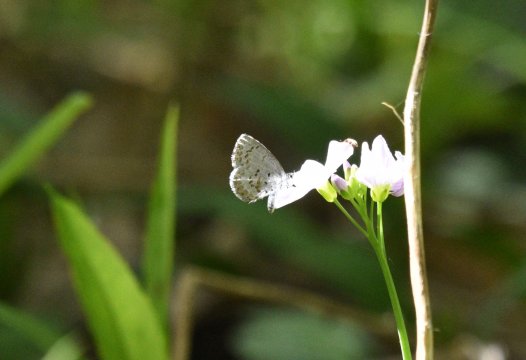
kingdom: Animalia
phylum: Arthropoda
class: Insecta
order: Lepidoptera
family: Lycaenidae
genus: Celastrina
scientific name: Celastrina lucia
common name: Northern Spring Azure
